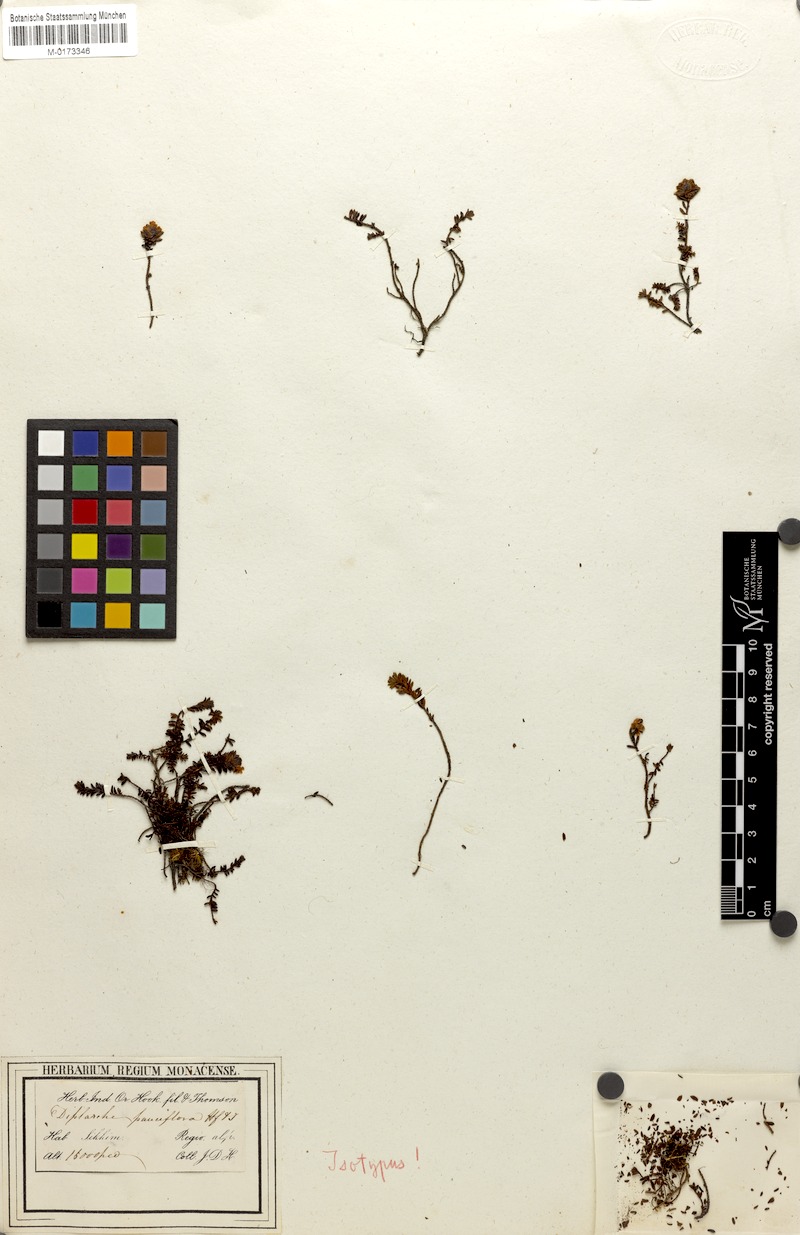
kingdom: Plantae
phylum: Tracheophyta
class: Magnoliopsida
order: Ericales
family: Ericaceae
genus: Rhododendron
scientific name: Rhododendron sophistarum
